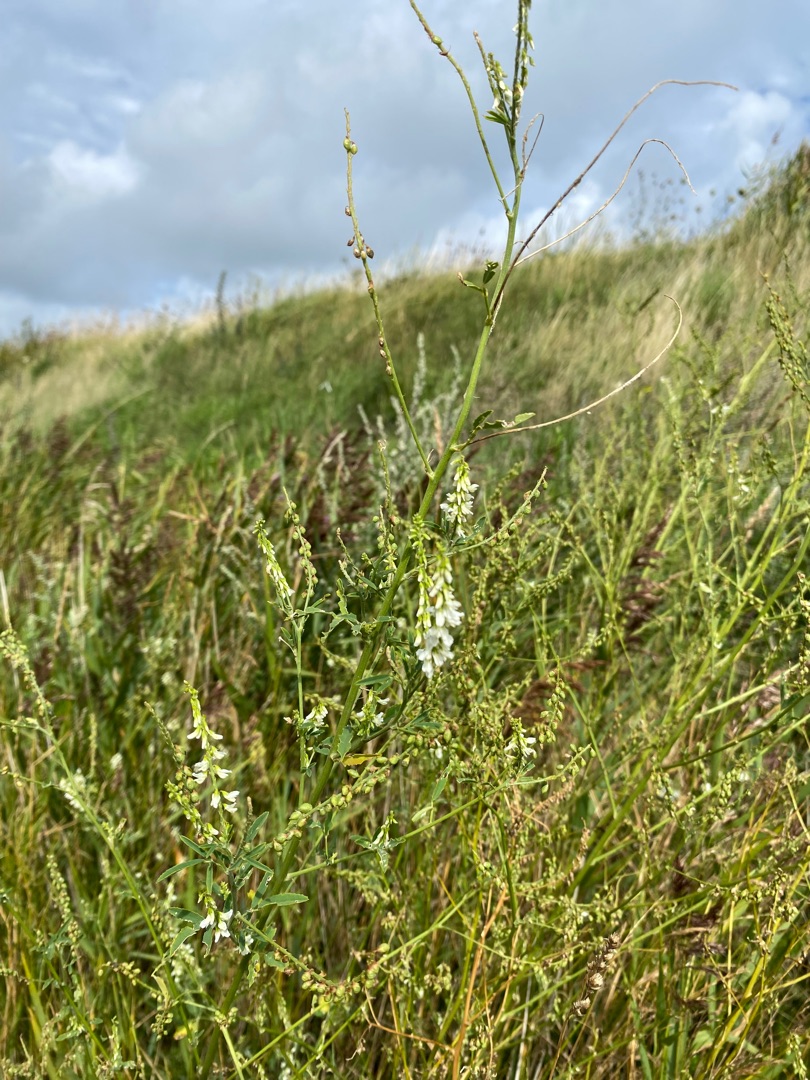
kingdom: Plantae
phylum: Tracheophyta
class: Magnoliopsida
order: Fabales
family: Fabaceae
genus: Melilotus
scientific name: Melilotus albus
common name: Hvid stenkløver
